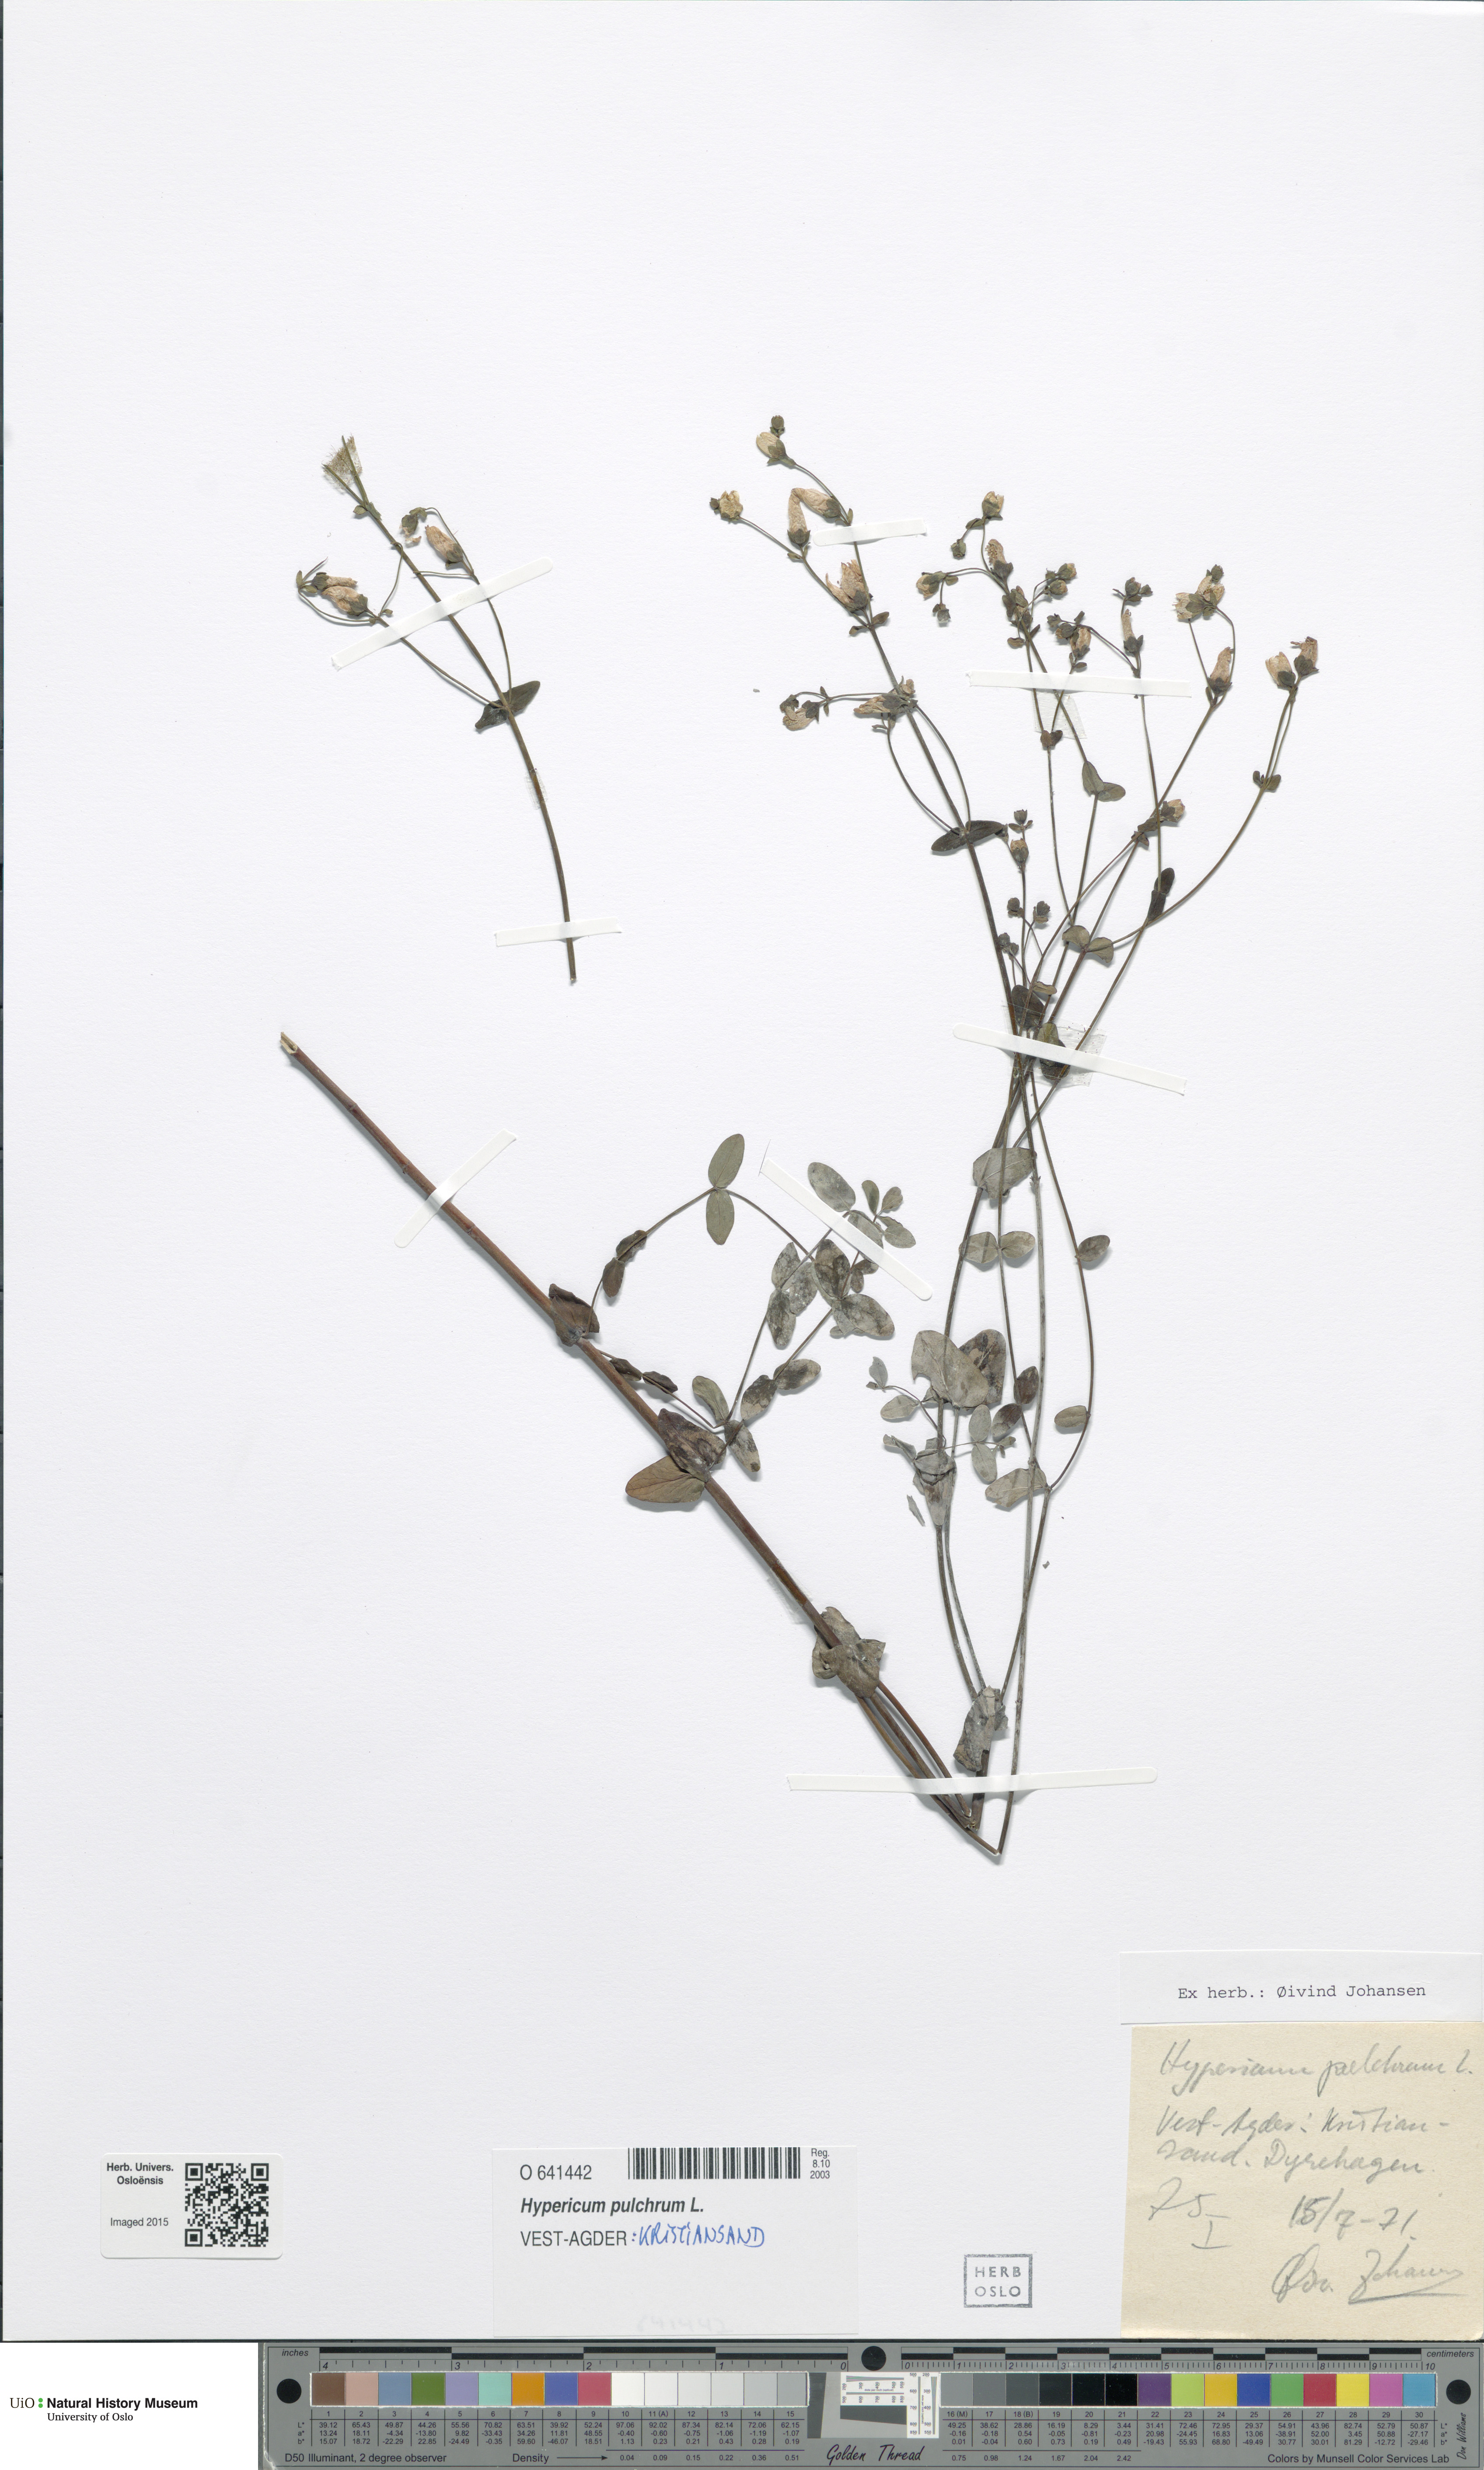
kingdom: Plantae
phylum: Tracheophyta
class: Magnoliopsida
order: Malpighiales
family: Hypericaceae
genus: Hypericum
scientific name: Hypericum pulchrum
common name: Slender st. john's-wort
